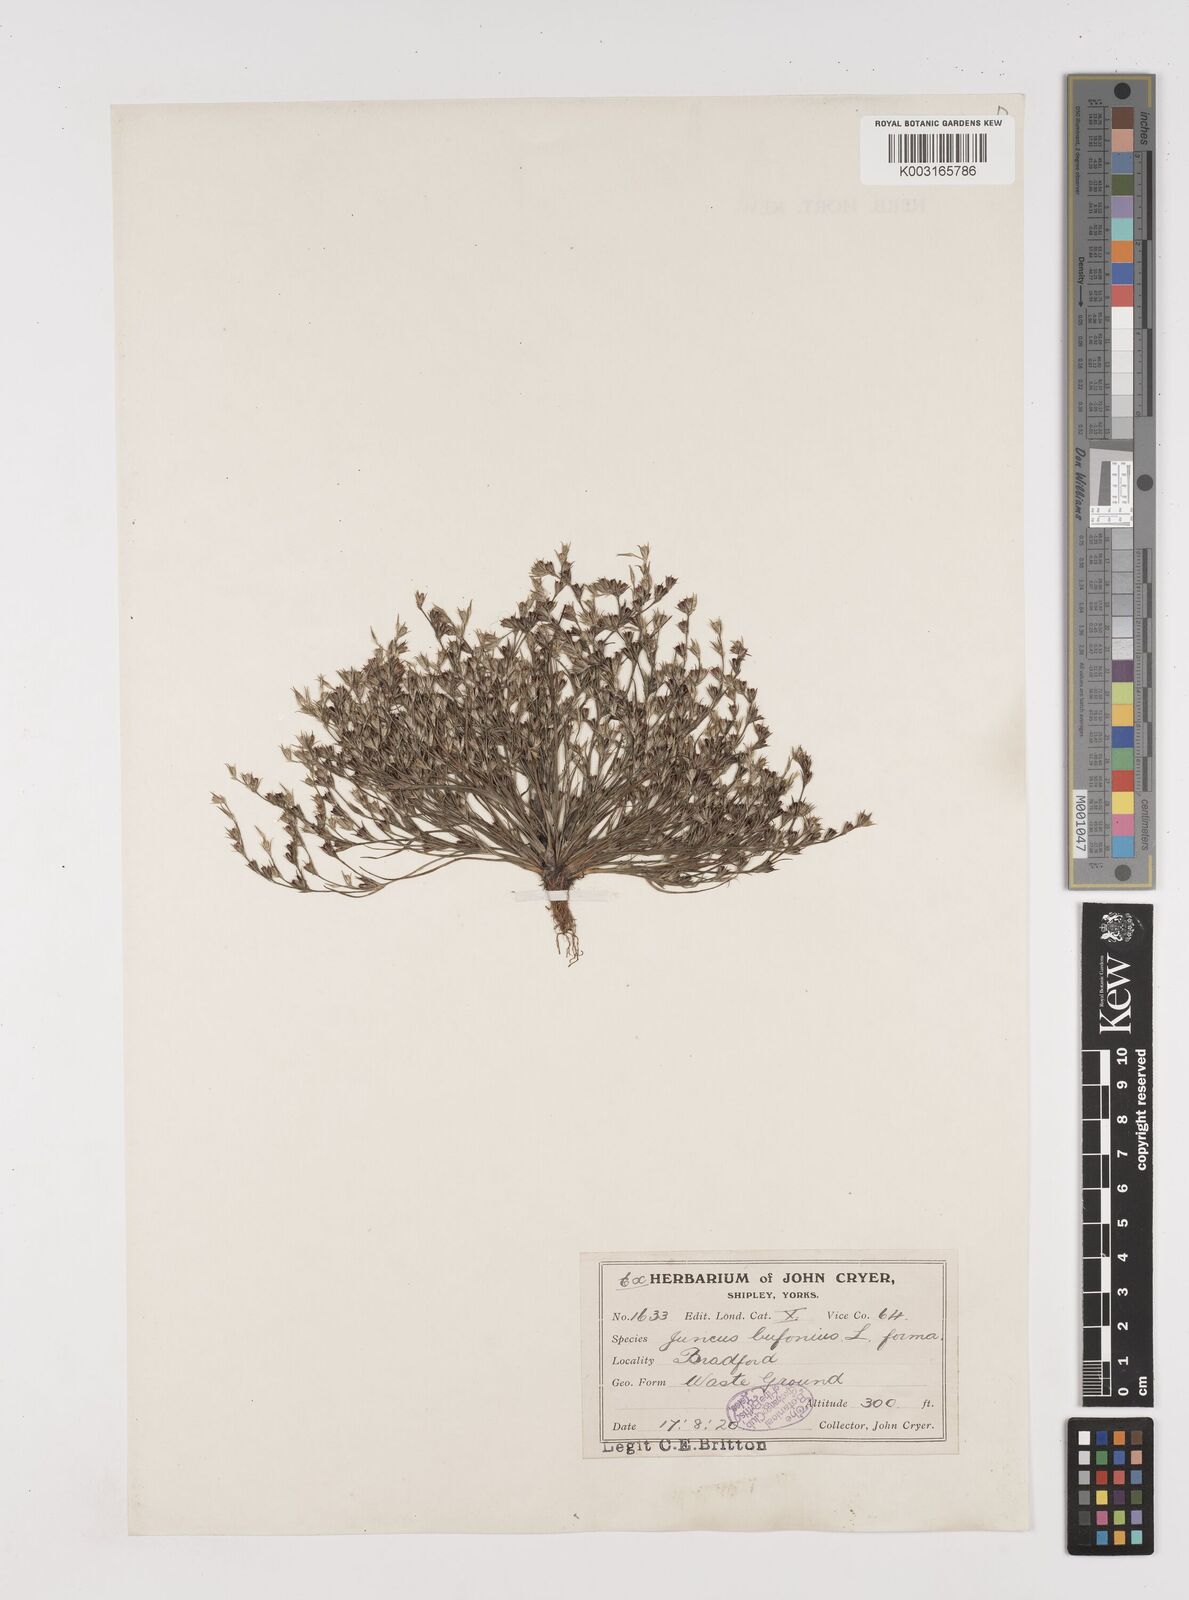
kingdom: Plantae
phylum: Tracheophyta
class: Liliopsida
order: Poales
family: Juncaceae
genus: Juncus
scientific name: Juncus bufonius
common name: Toad rush
